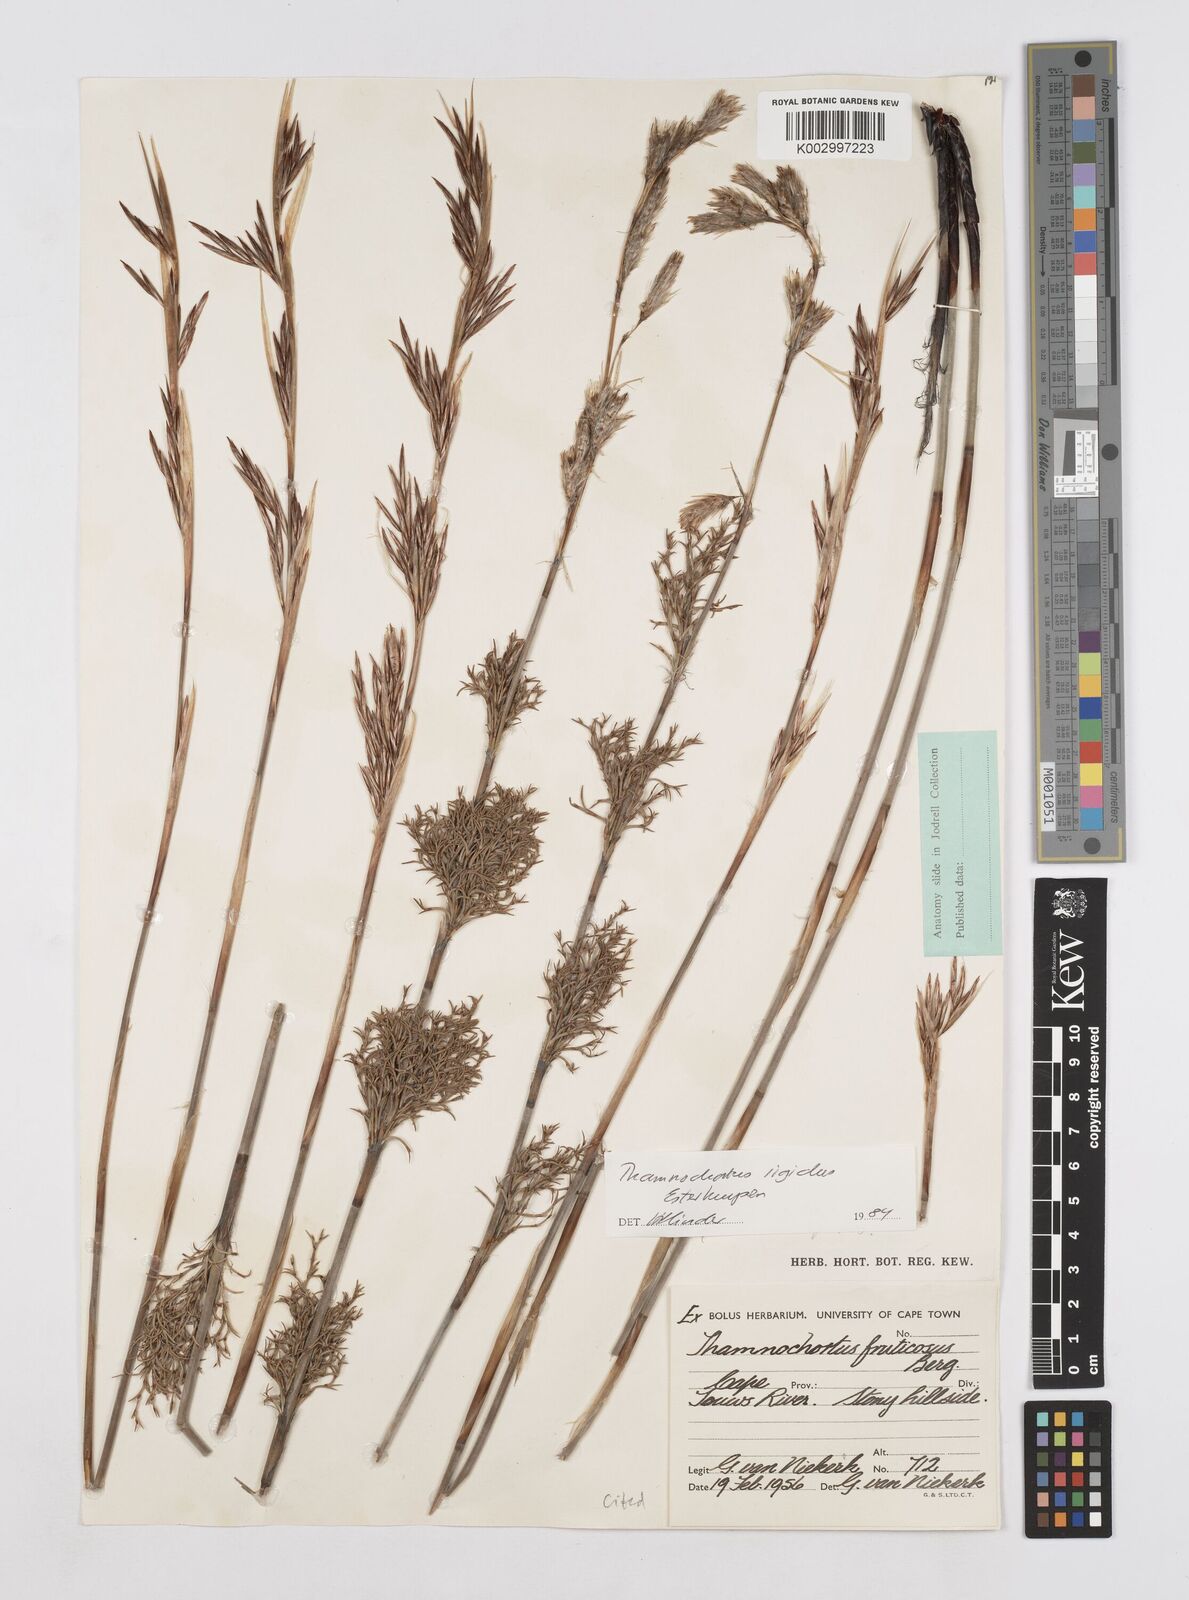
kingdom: Plantae
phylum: Tracheophyta
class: Liliopsida
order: Poales
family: Restionaceae
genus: Thamnochortus
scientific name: Thamnochortus rigidus
